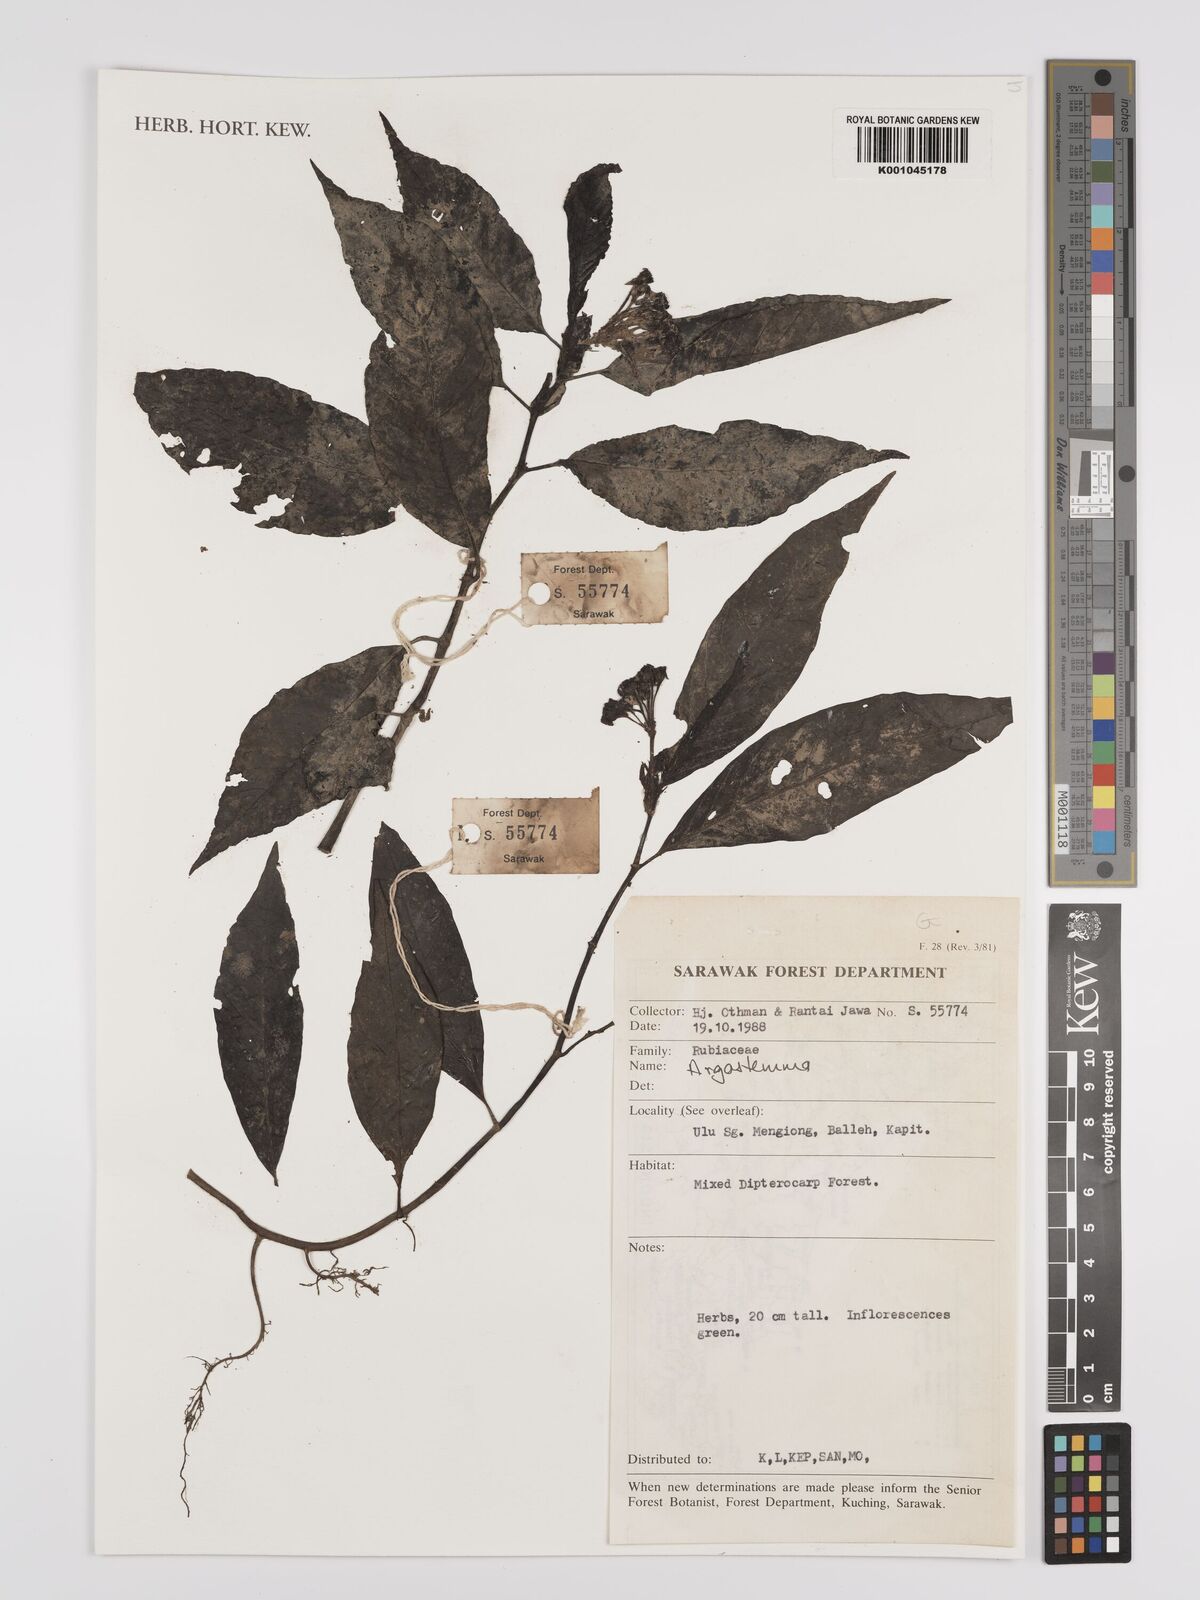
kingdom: Plantae
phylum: Tracheophyta
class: Magnoliopsida
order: Gentianales
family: Rubiaceae
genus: Argostemma
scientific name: Argostemma
